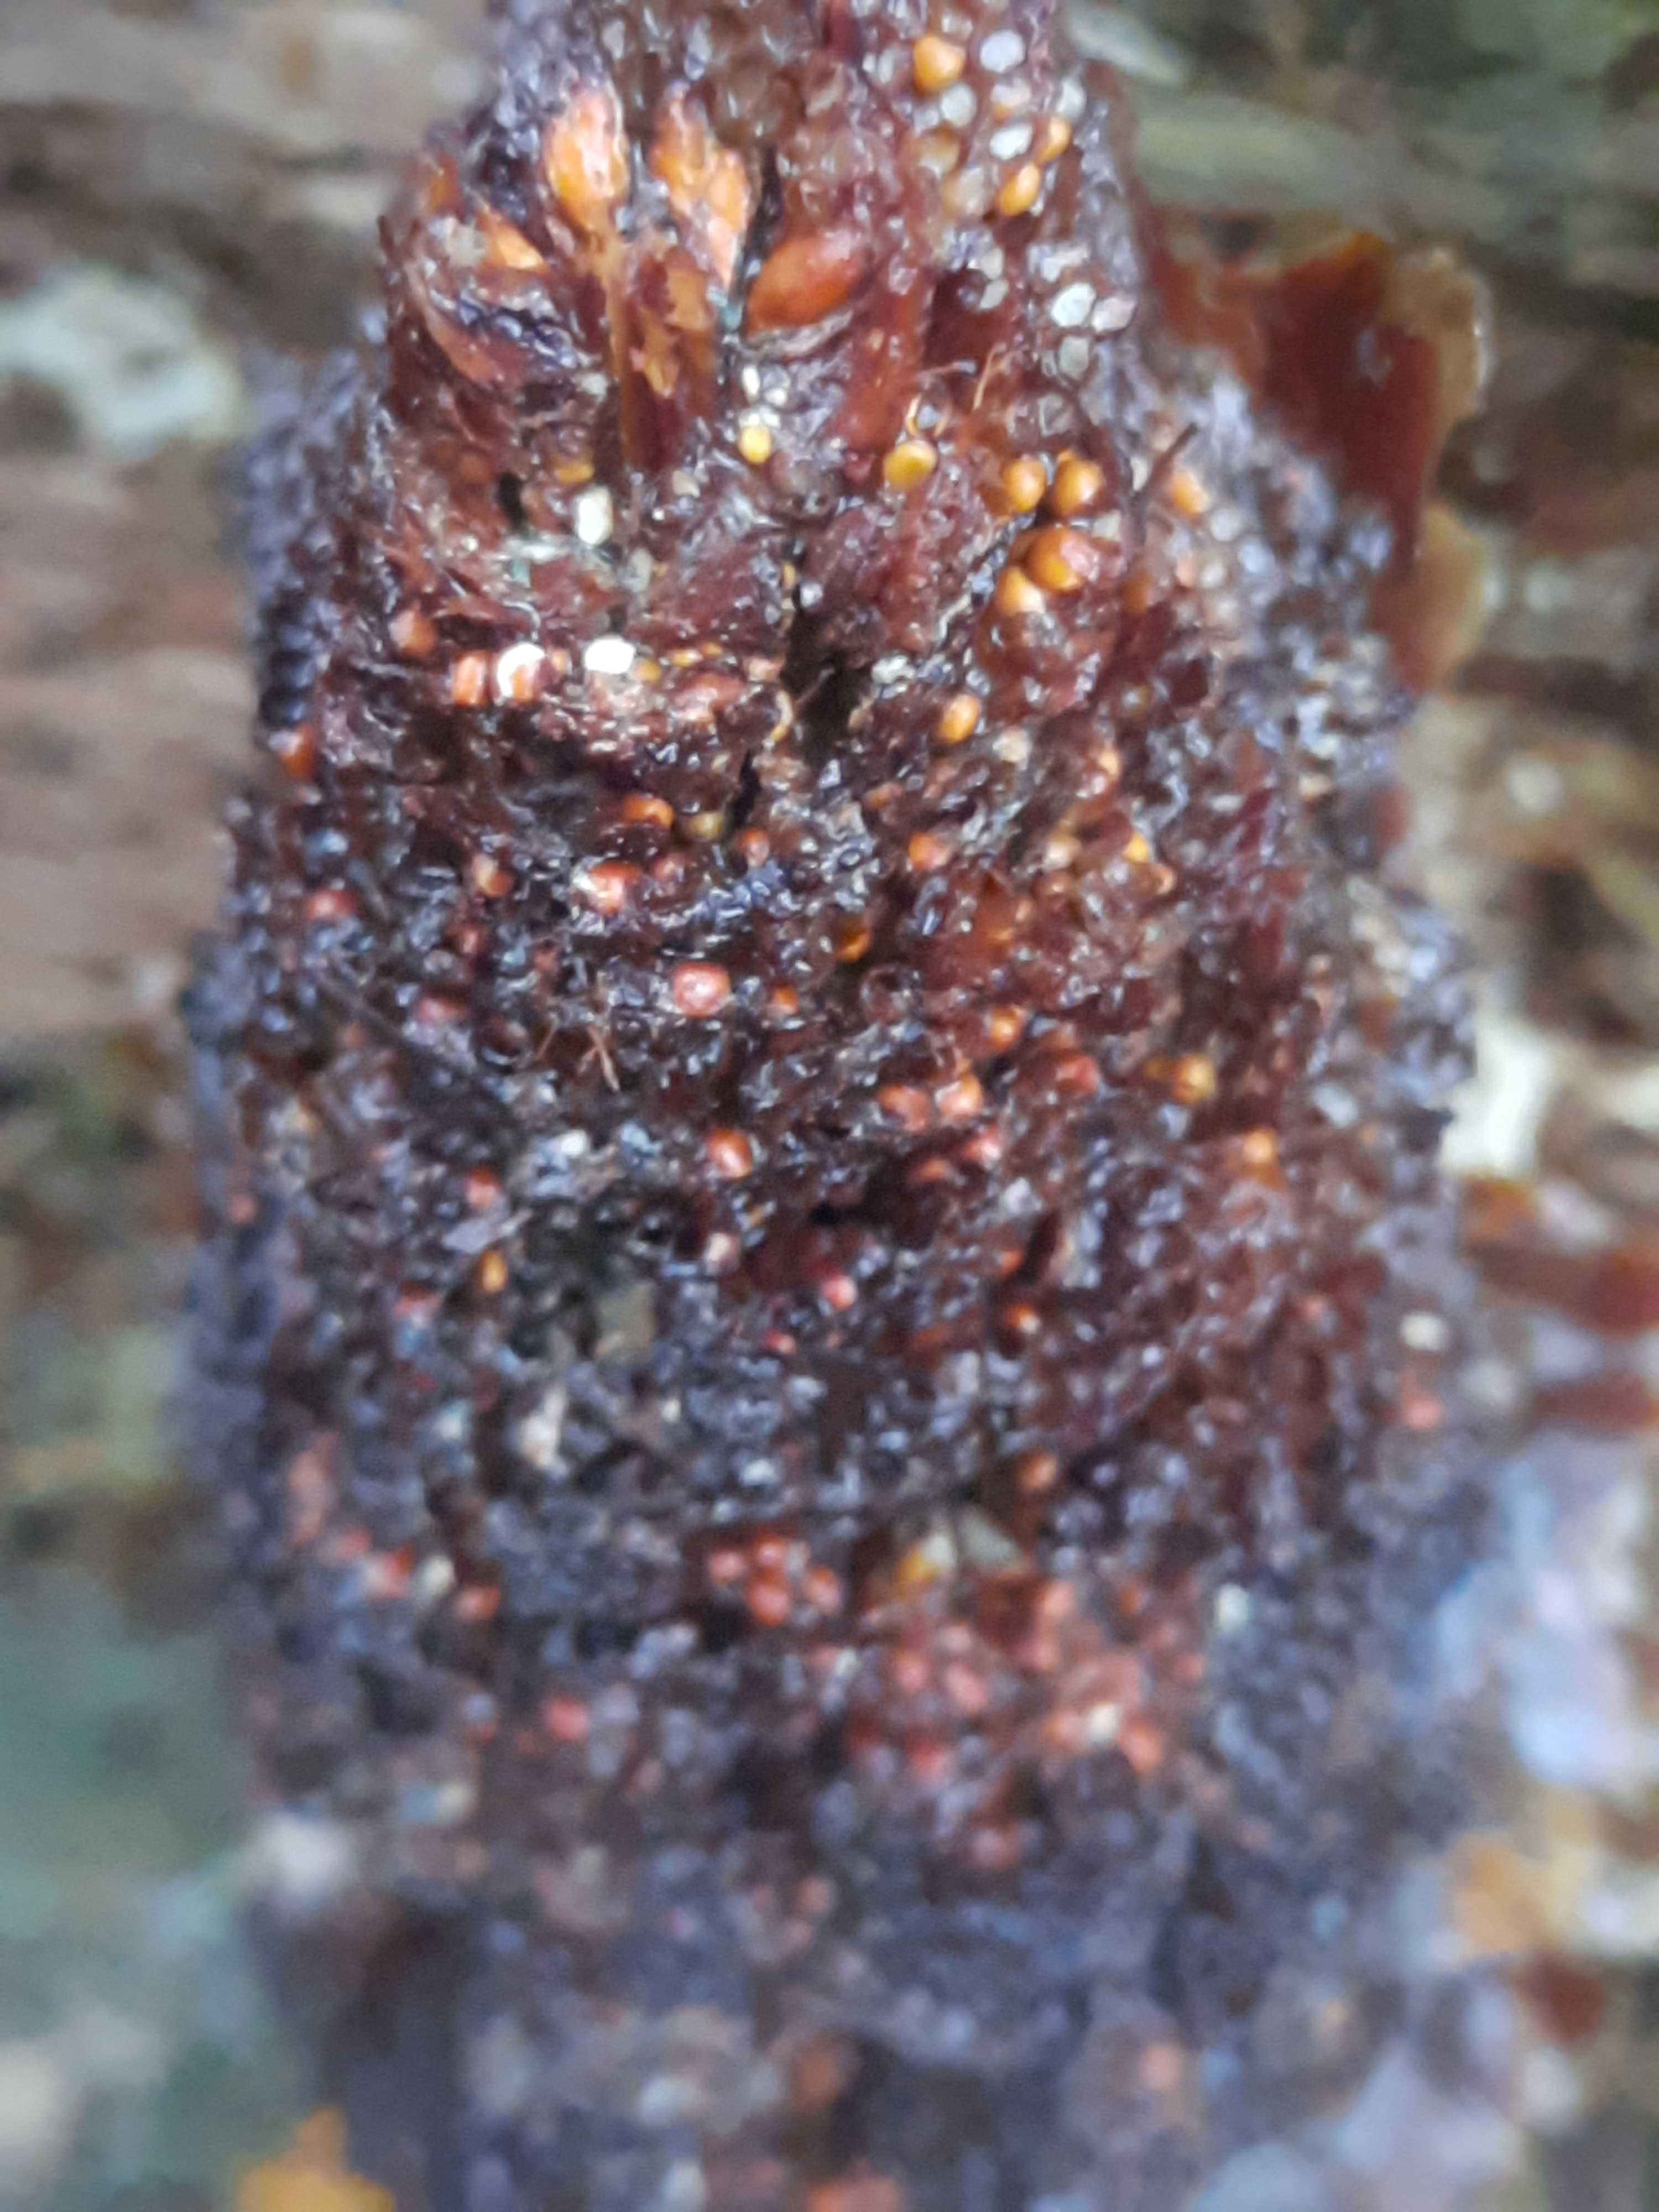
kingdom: Fungi
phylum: Basidiomycota
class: Pucciniomycetes
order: Pucciniales
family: Pucciniastraceae
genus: Thekopsora
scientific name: Thekopsora areolata
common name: grankogle-nålerust
